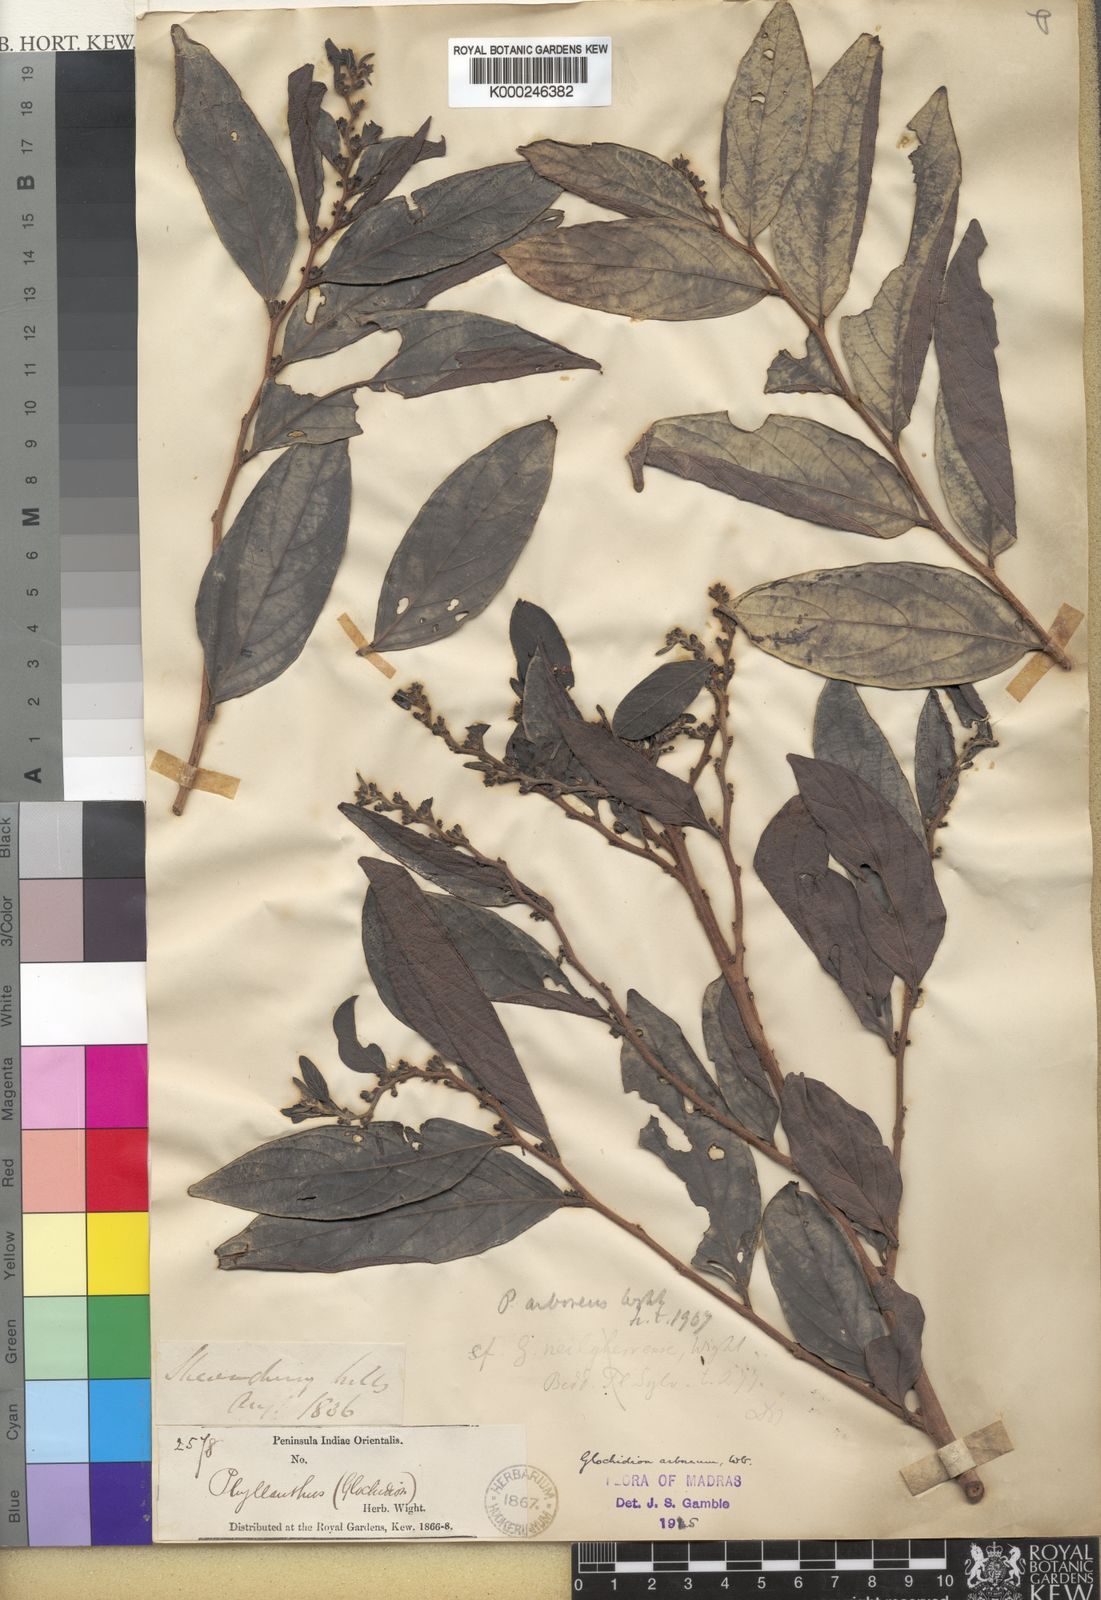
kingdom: Plantae
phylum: Tracheophyta
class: Magnoliopsida
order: Malpighiales
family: Phyllanthaceae
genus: Glochidion
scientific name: Glochidion candolleanum
